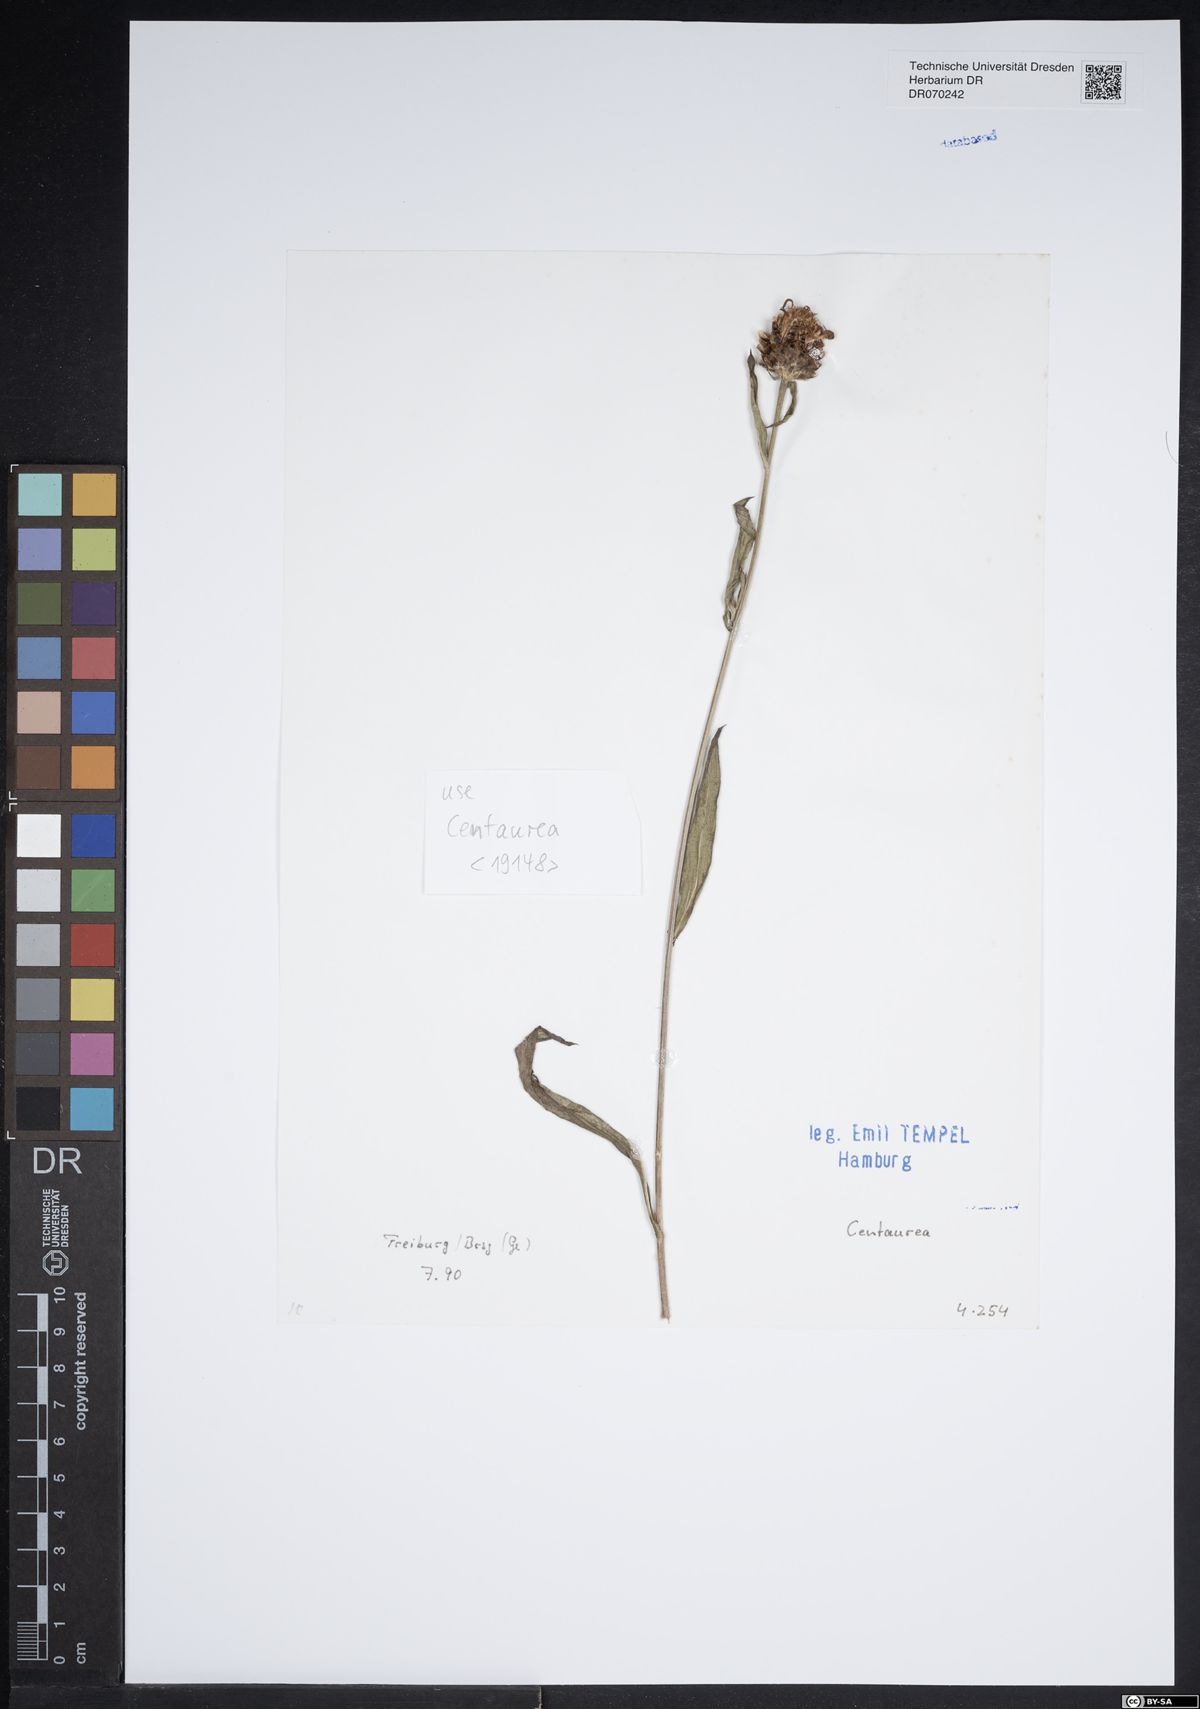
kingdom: Plantae
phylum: Tracheophyta
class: Magnoliopsida
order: Asterales
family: Asteraceae
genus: Centaurea
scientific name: Centaurea
